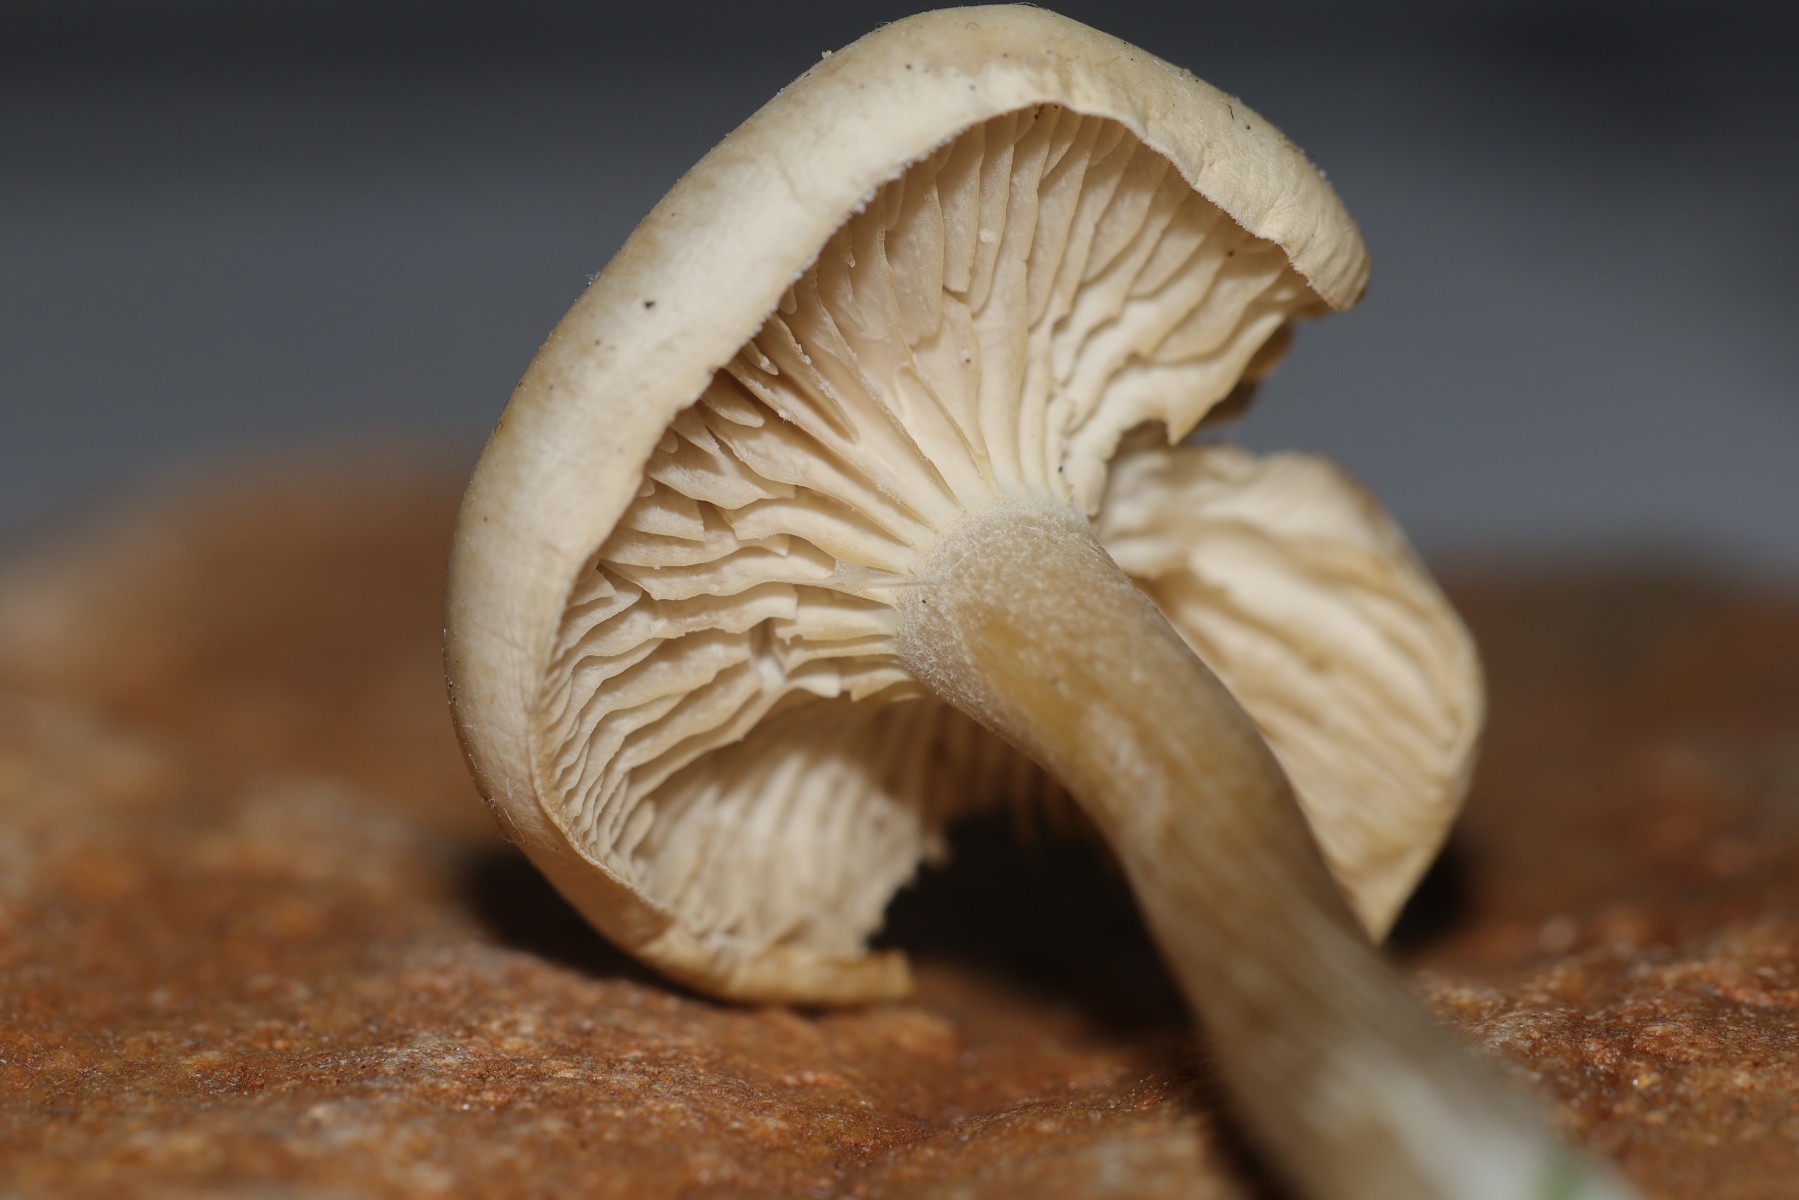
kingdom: Fungi
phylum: Basidiomycota
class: Agaricomycetes
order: Agaricales
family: Tricholomataceae
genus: Clitocybe
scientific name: Clitocybe
